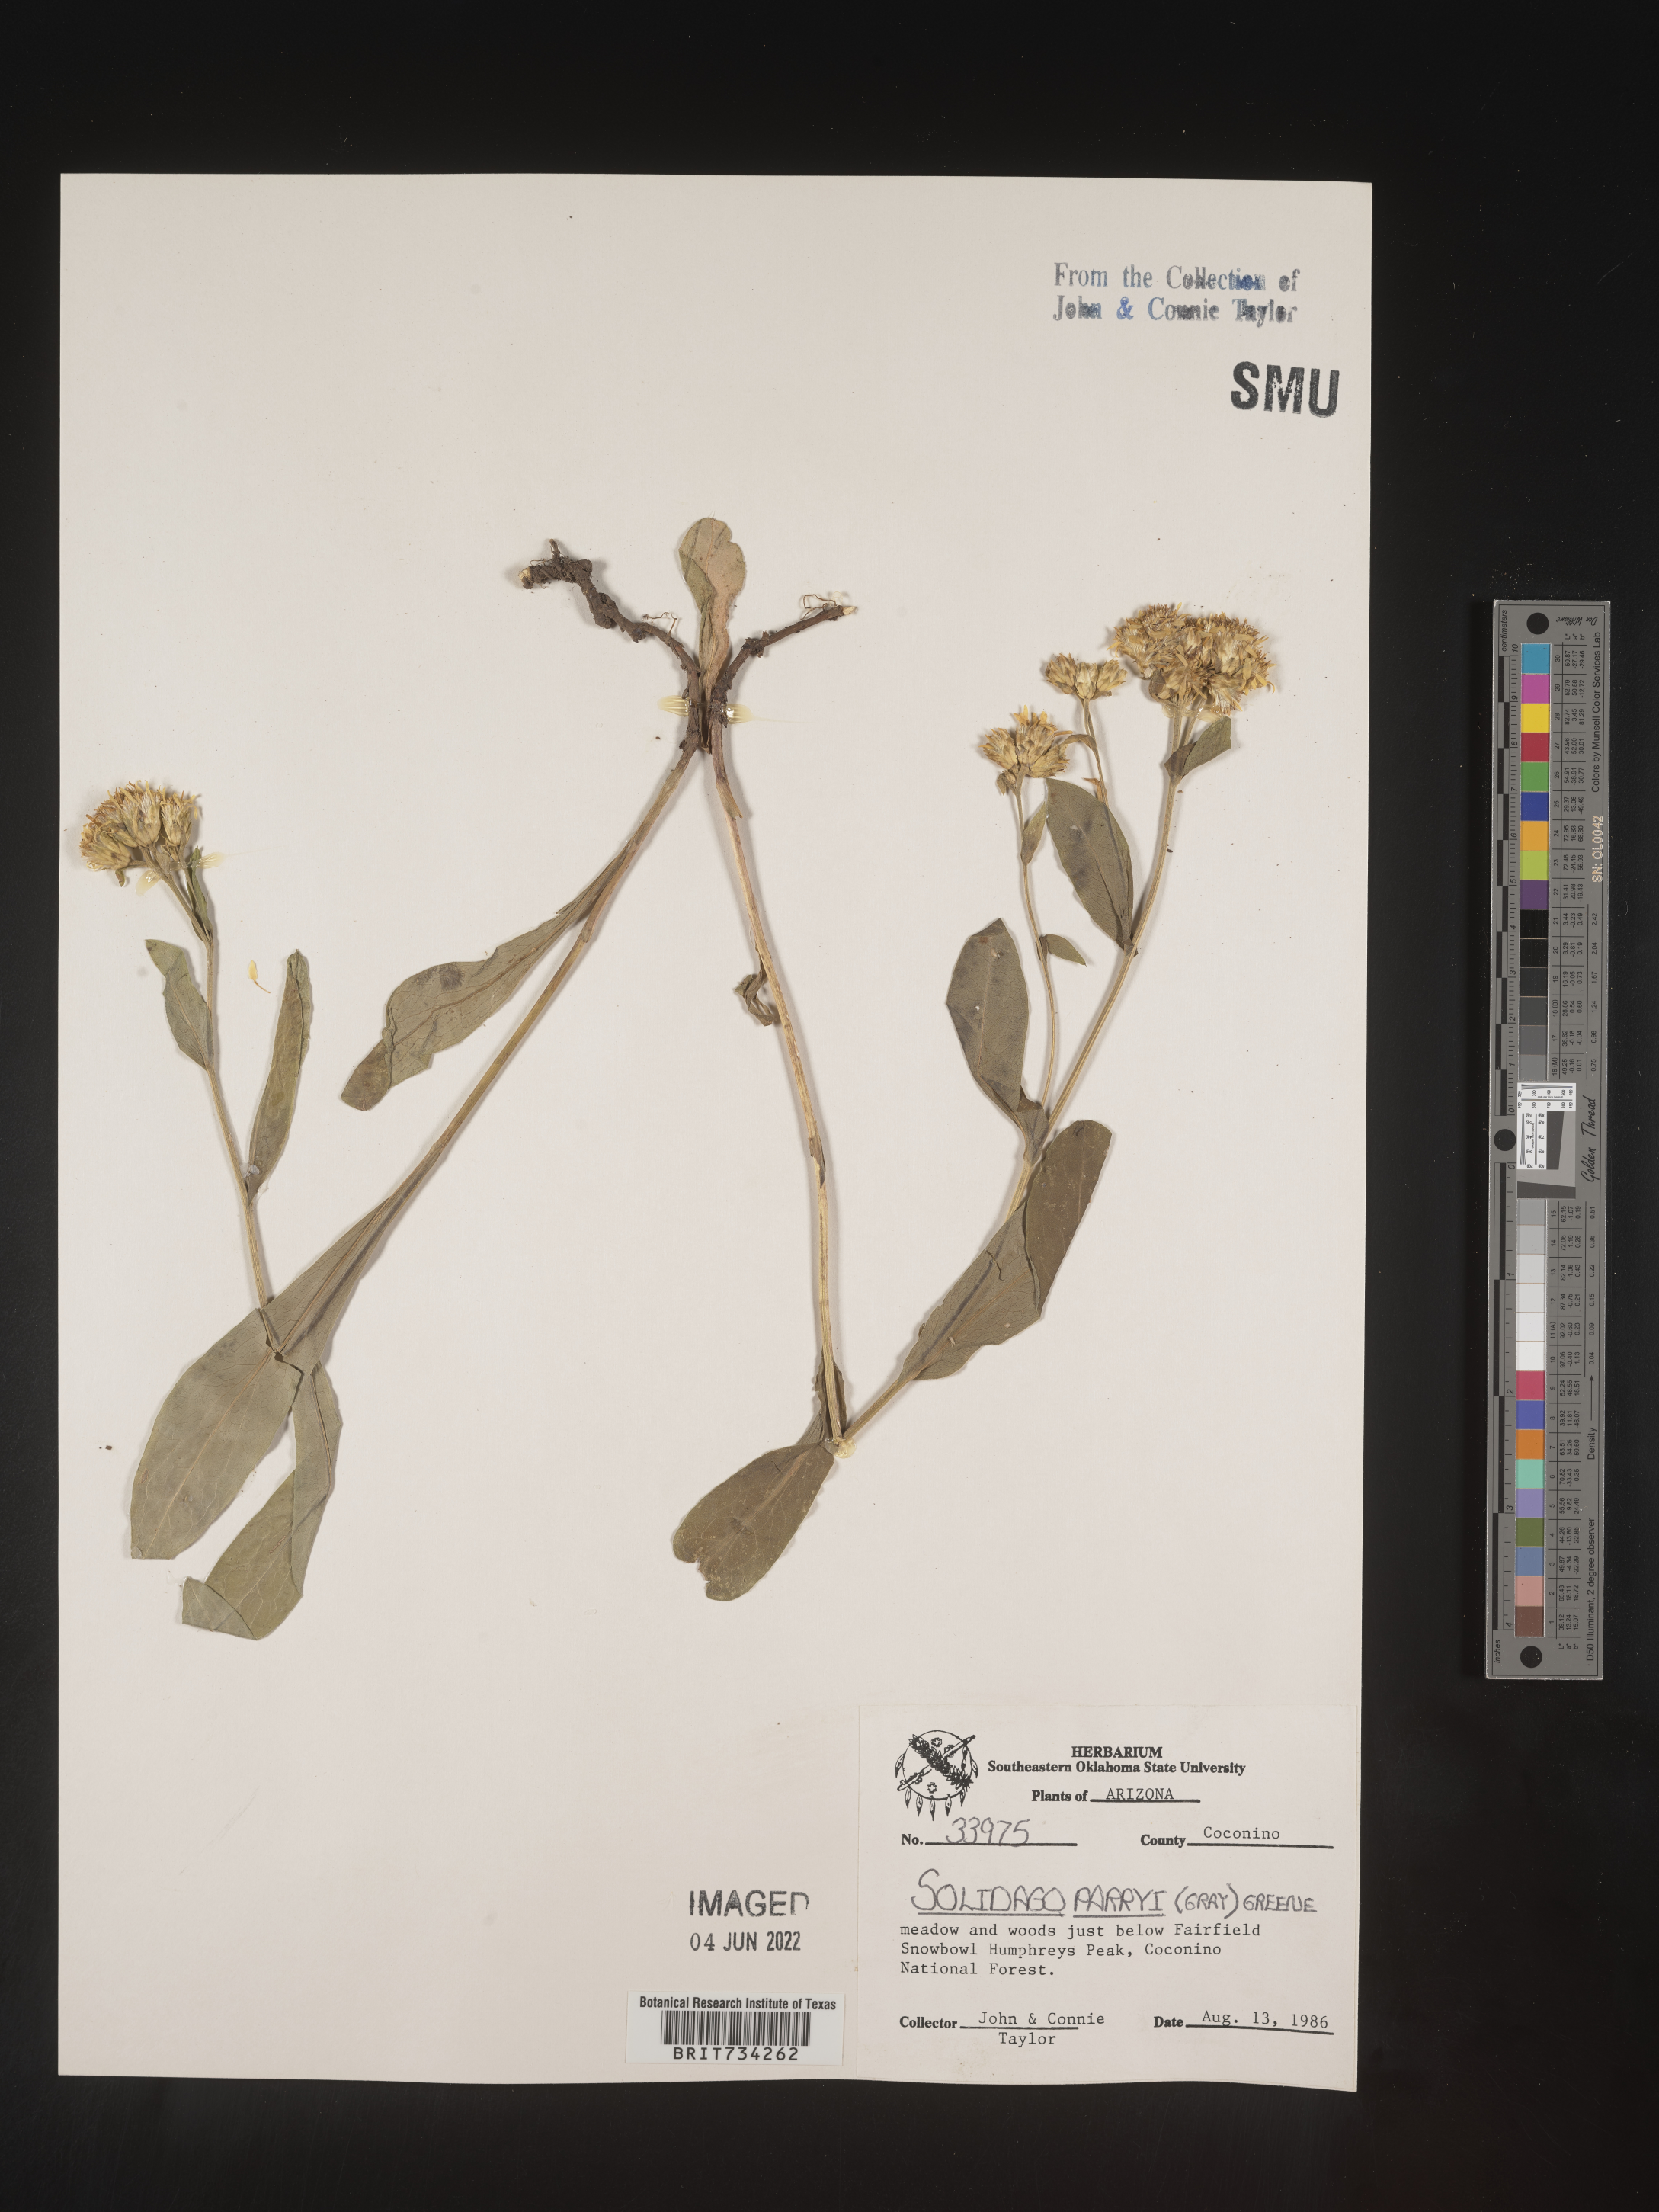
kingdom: Plantae
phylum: Tracheophyta
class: Magnoliopsida
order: Asterales
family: Asteraceae
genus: Oreochrysum
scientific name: Oreochrysum parryi
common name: Parry's goldenweed
